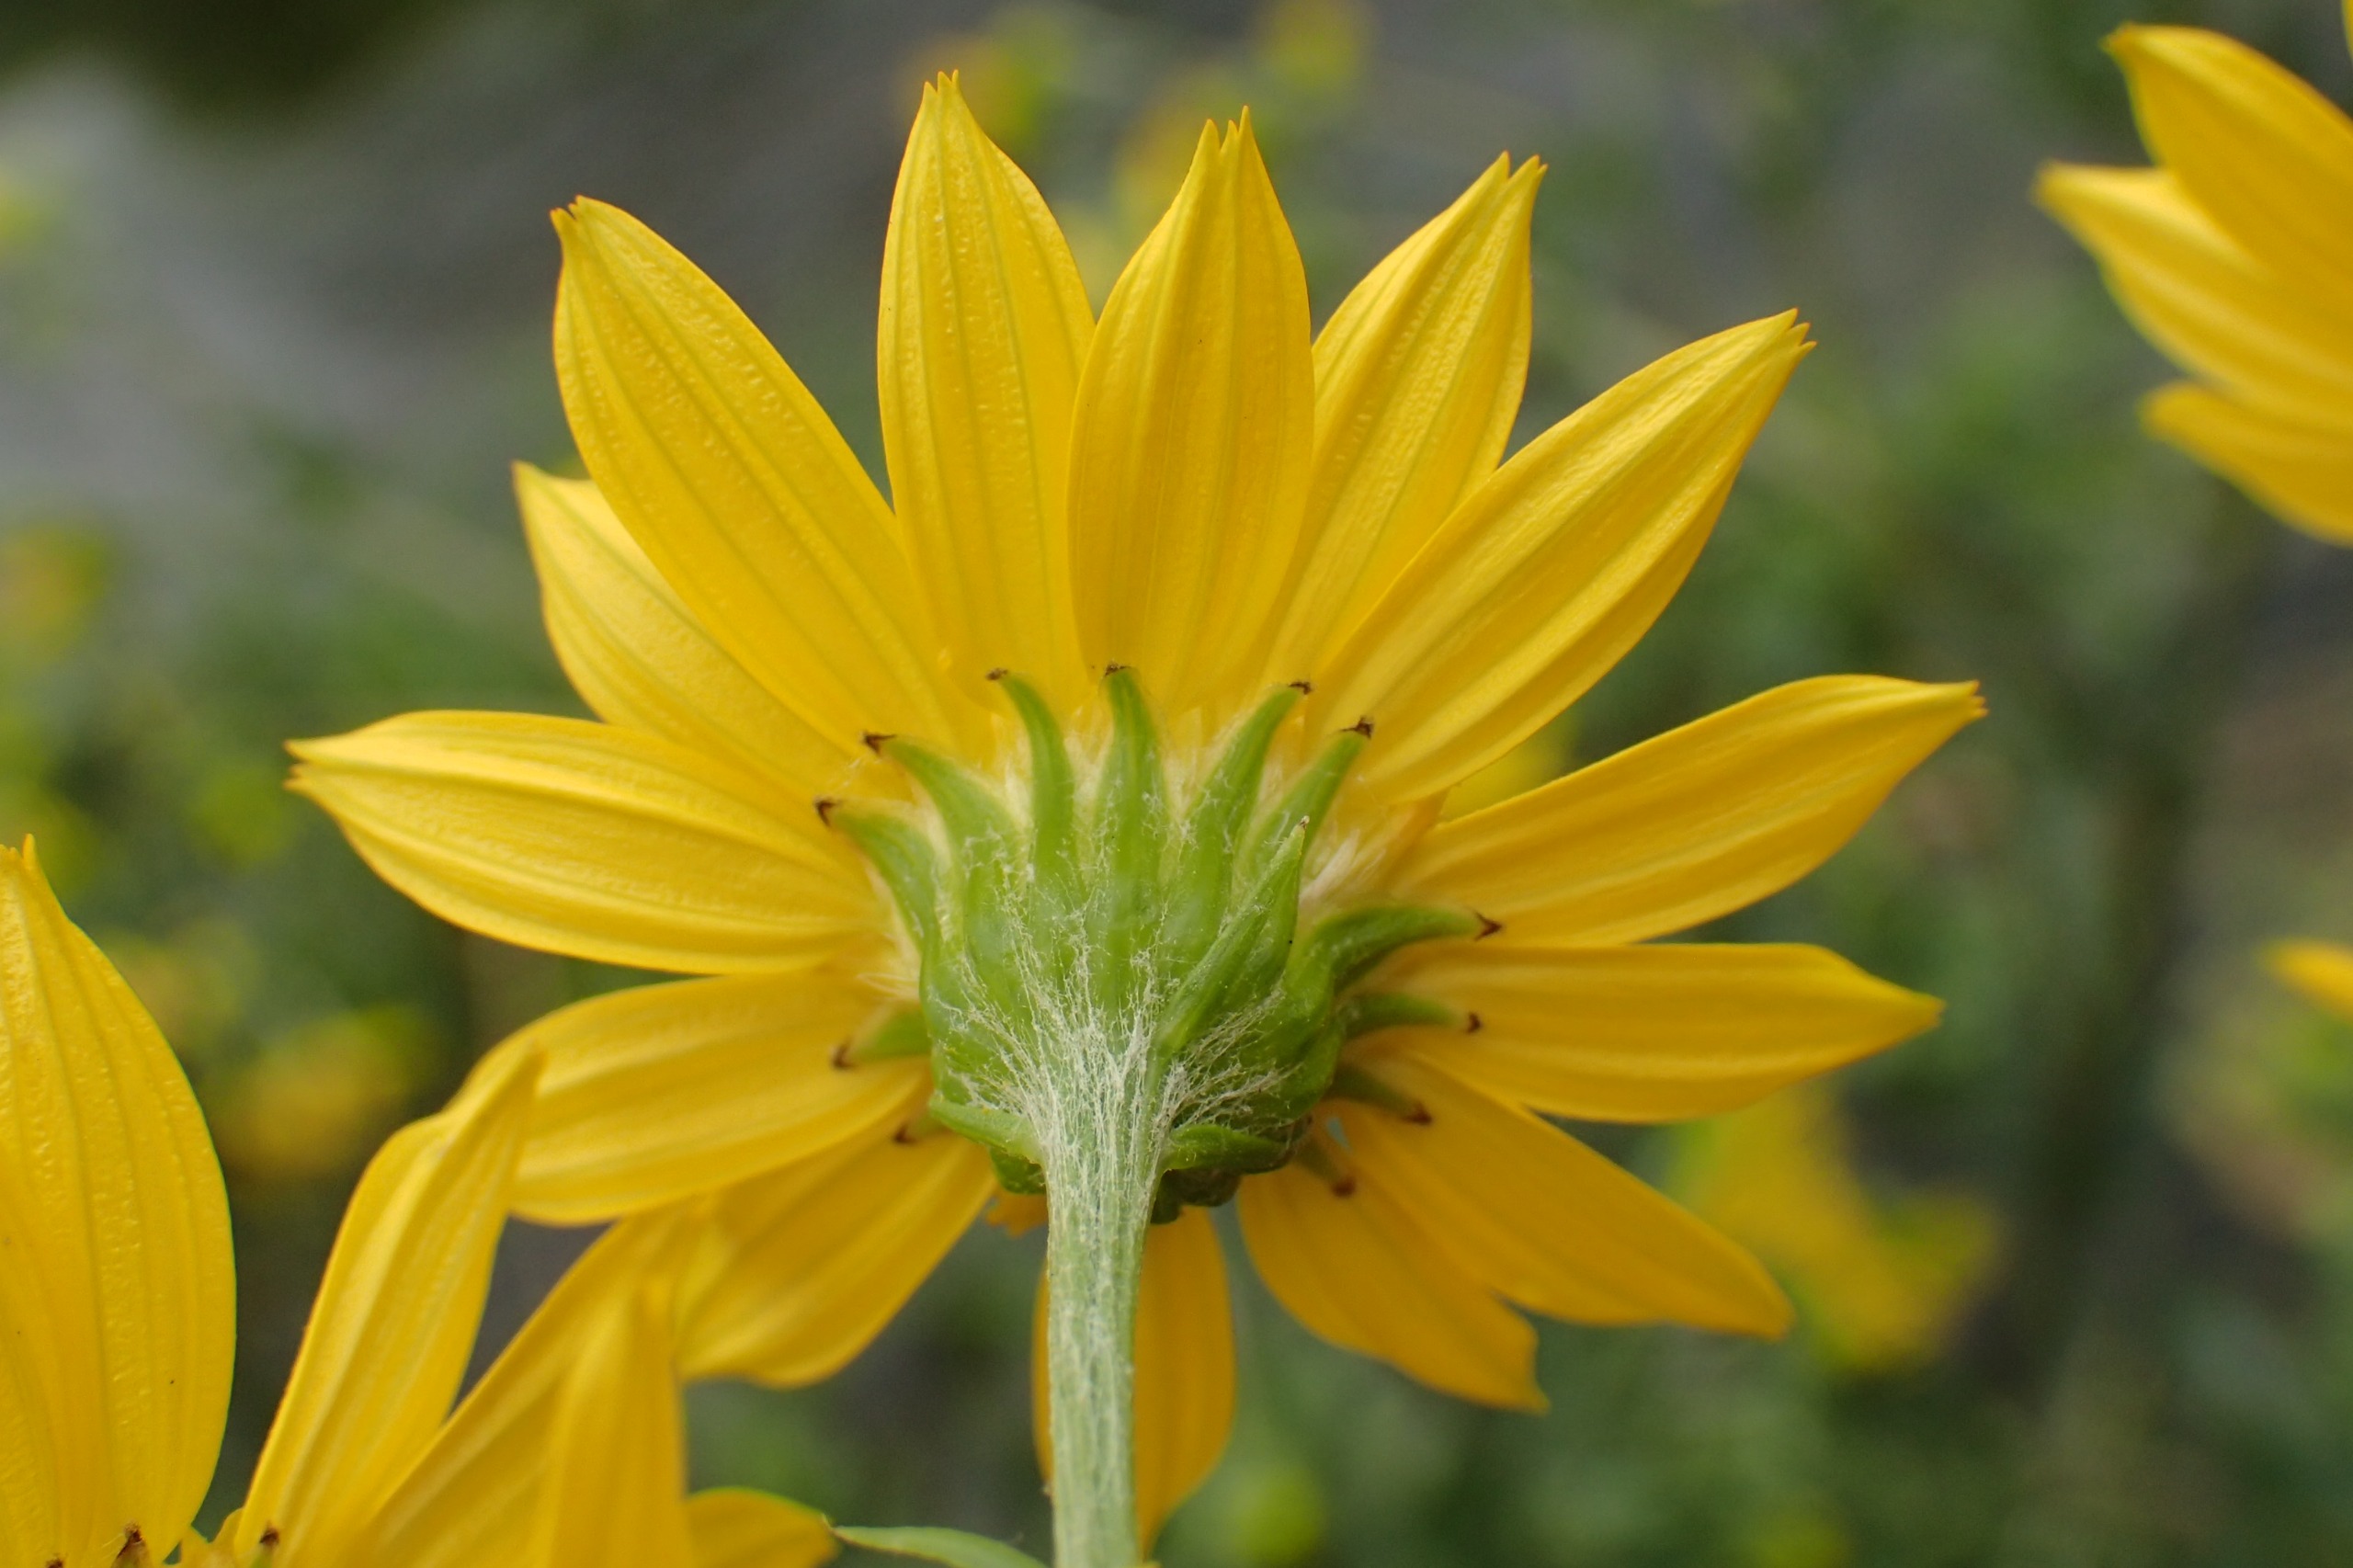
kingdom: Plantae
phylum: Tracheophyta
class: Magnoliopsida
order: Asterales
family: Asteraceae
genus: Jacobaea
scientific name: Jacobaea aquatica
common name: Vand-brandbæger
